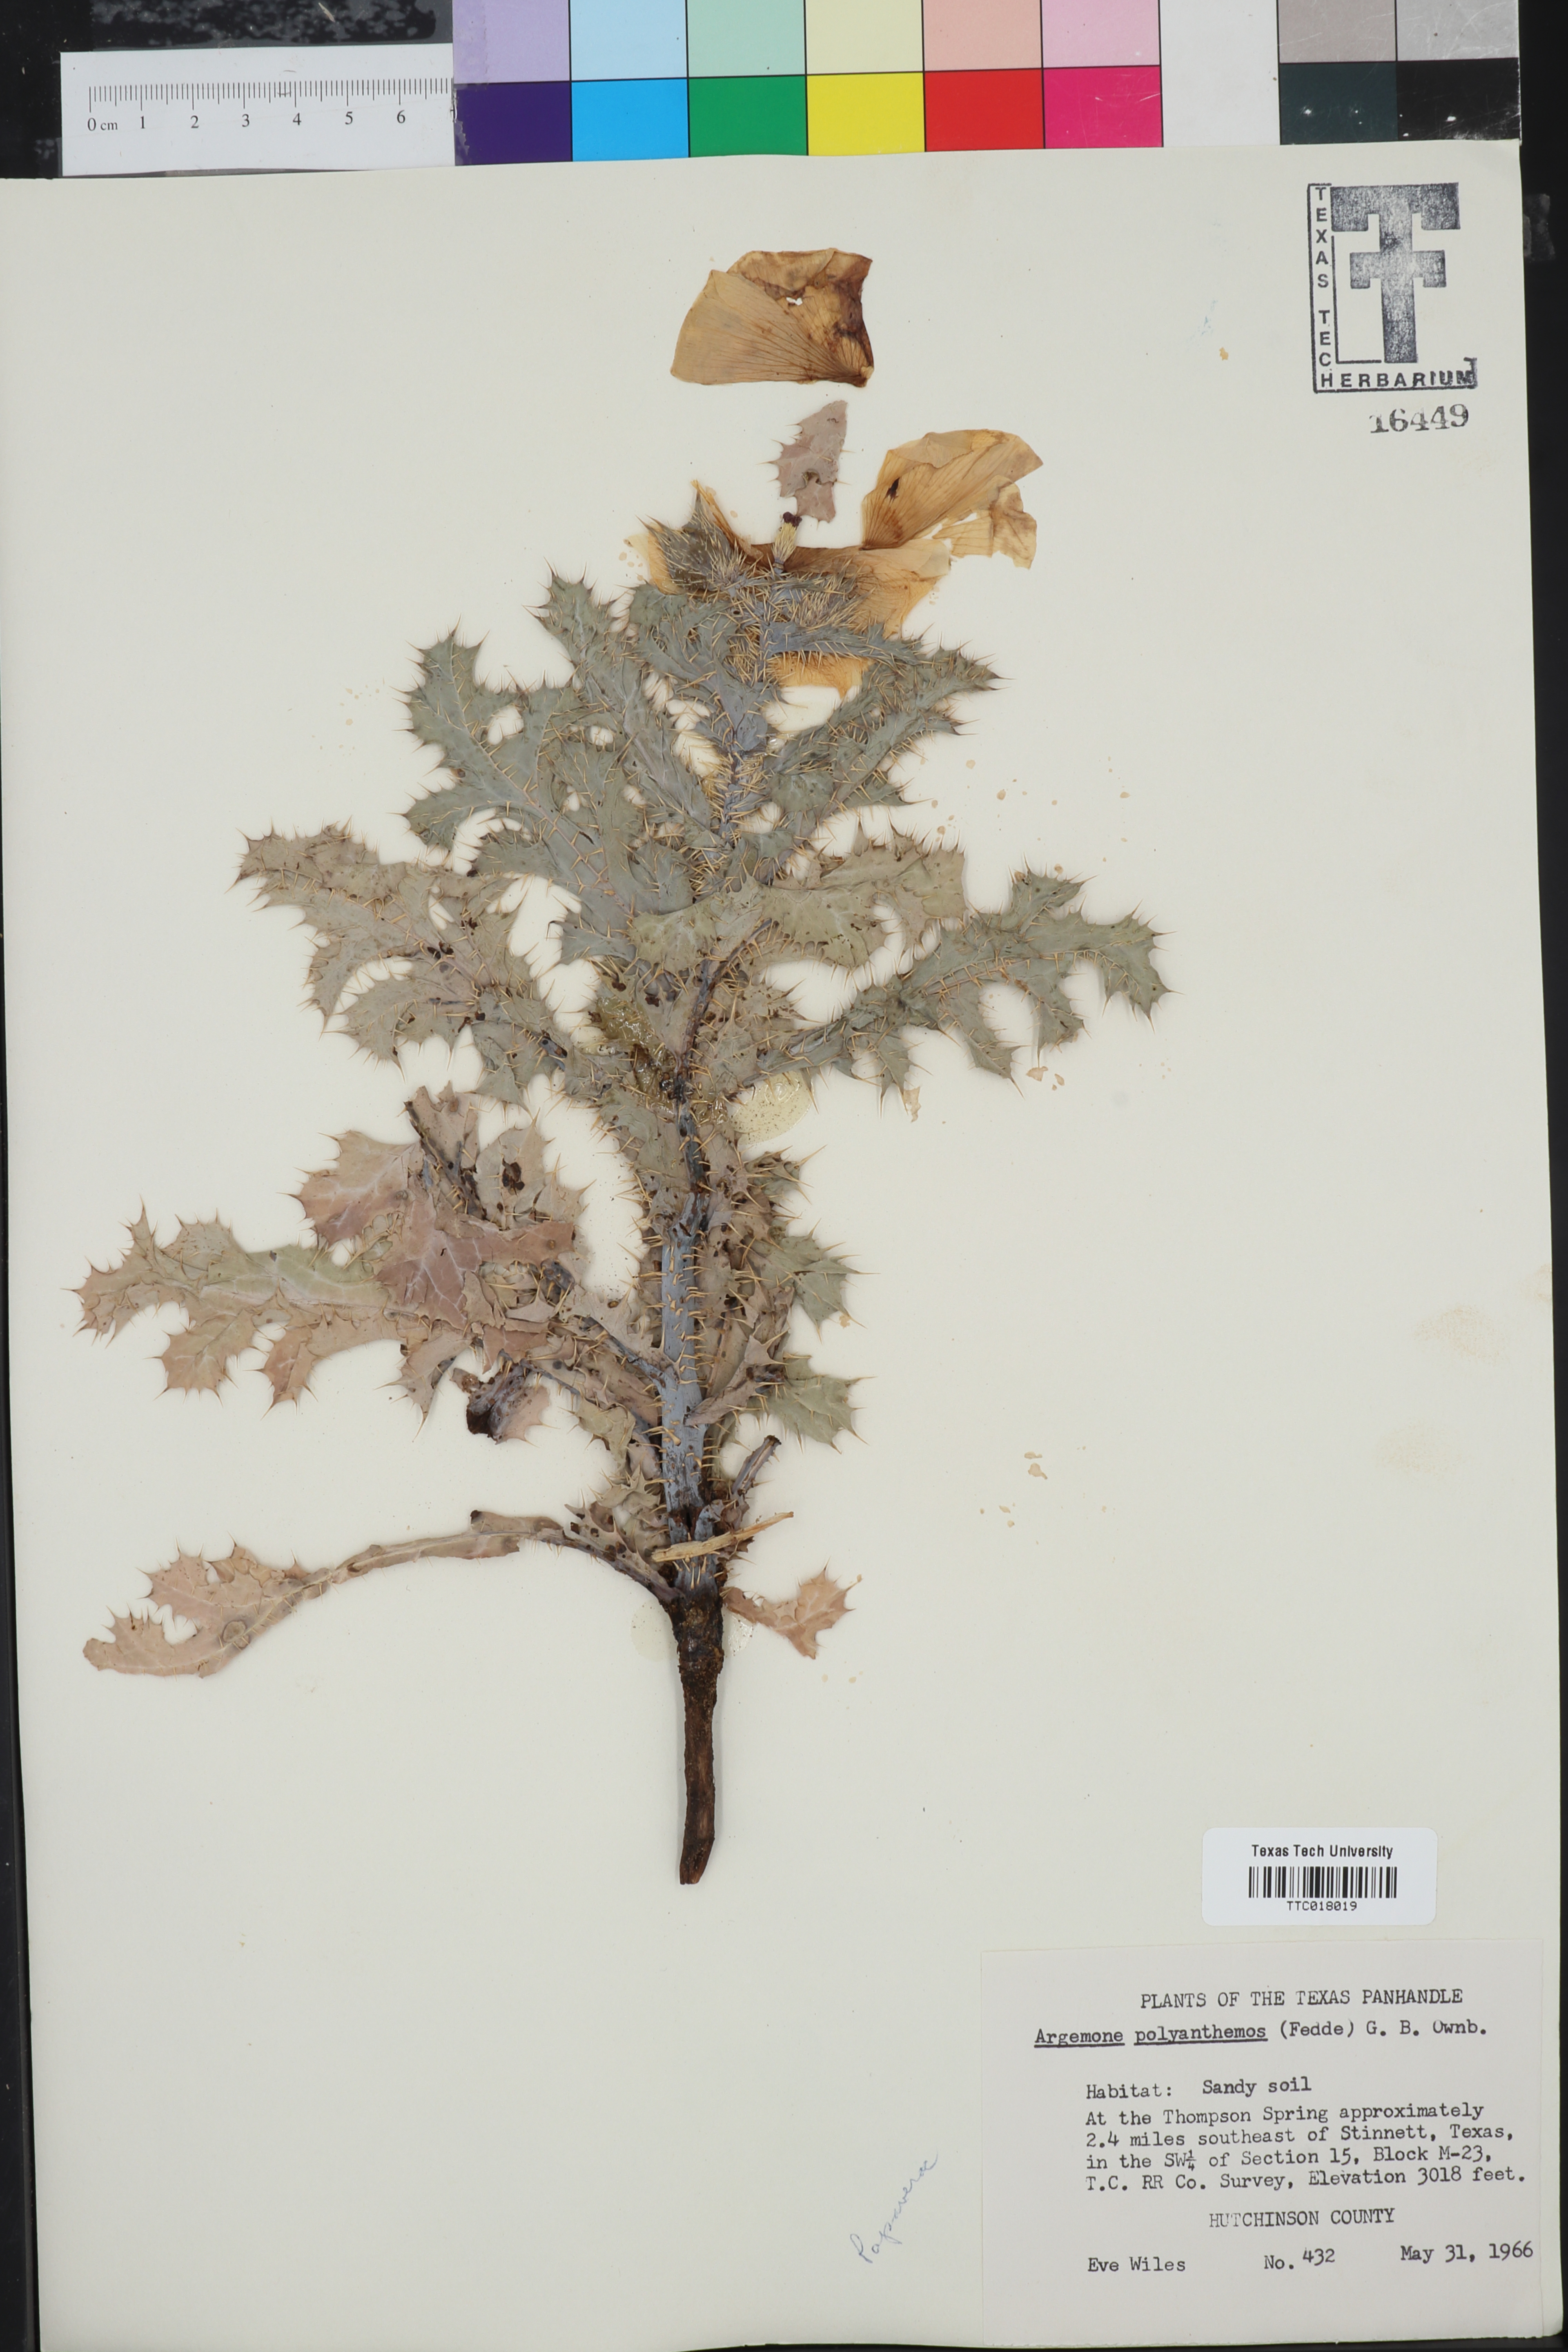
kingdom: Plantae
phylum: Tracheophyta
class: Magnoliopsida
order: Ranunculales
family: Papaveraceae
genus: Argemone
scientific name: Argemone polyanthemos
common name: Plains prickly-poppy
